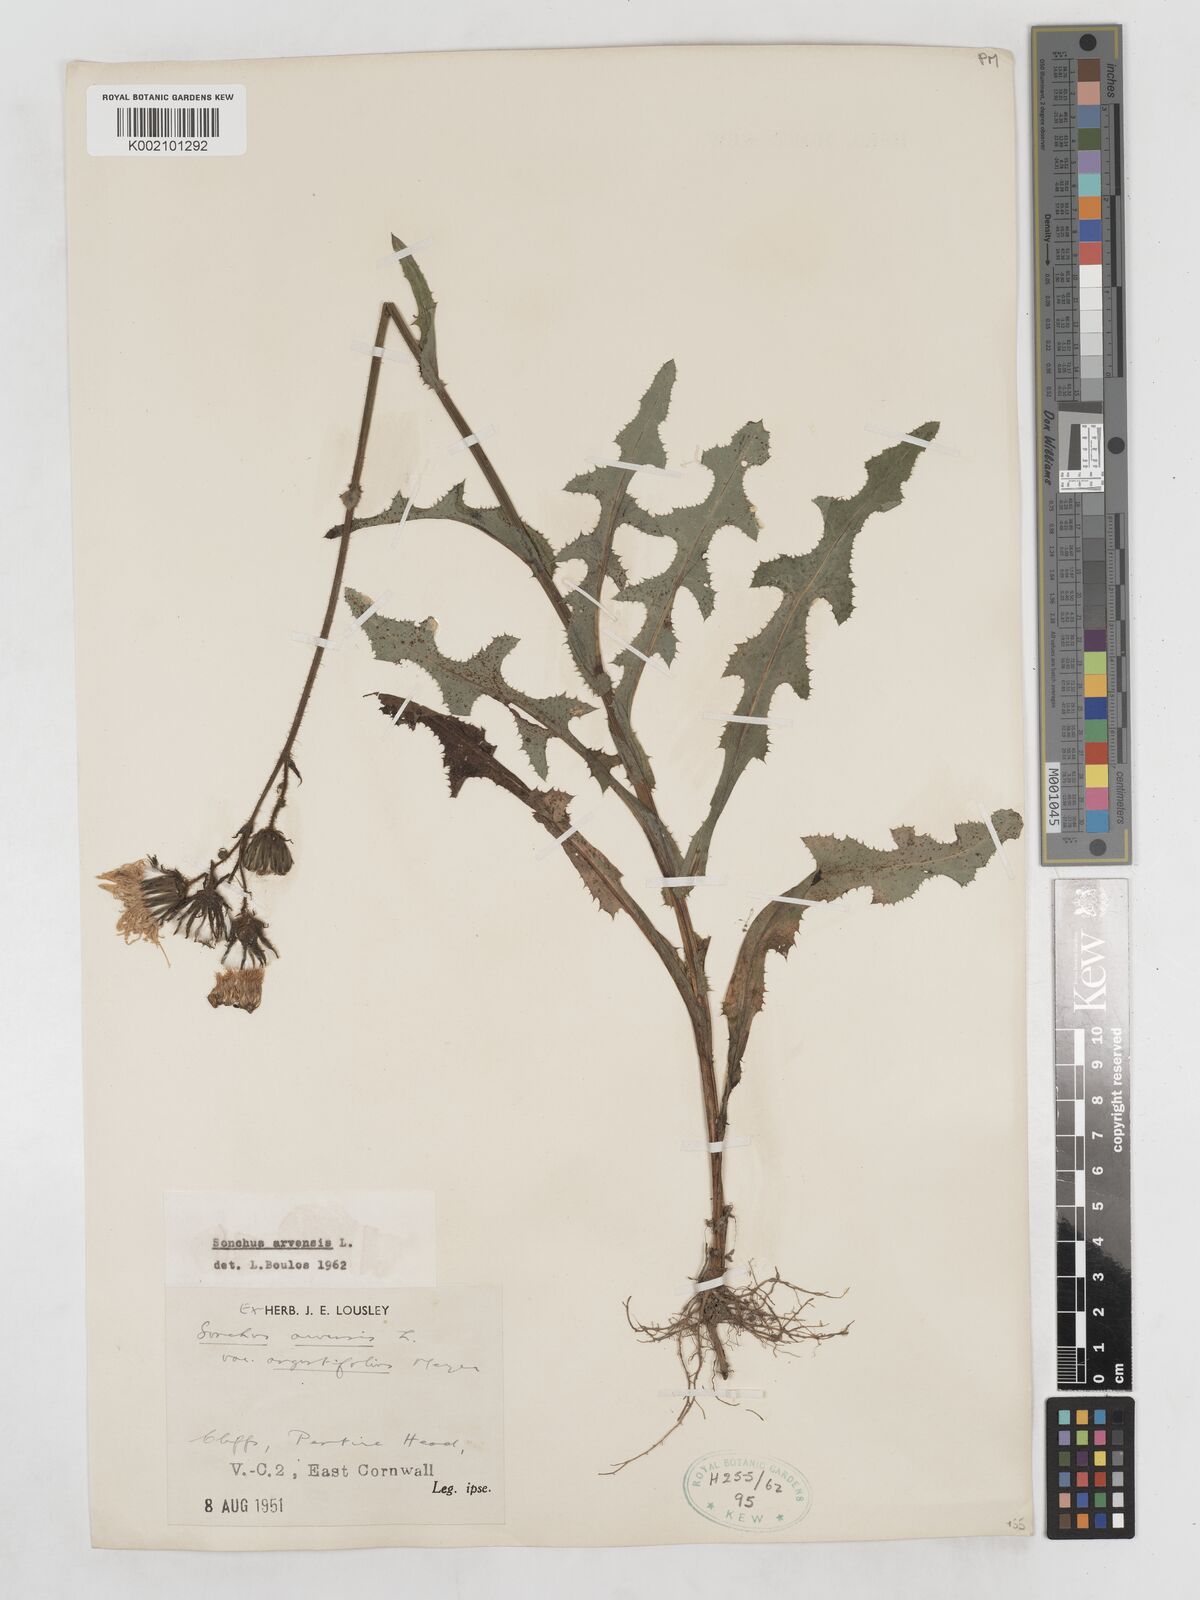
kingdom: Plantae
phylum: Tracheophyta
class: Magnoliopsida
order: Asterales
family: Asteraceae
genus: Sonchus
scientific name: Sonchus arvensis
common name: Perennial sow-thistle
